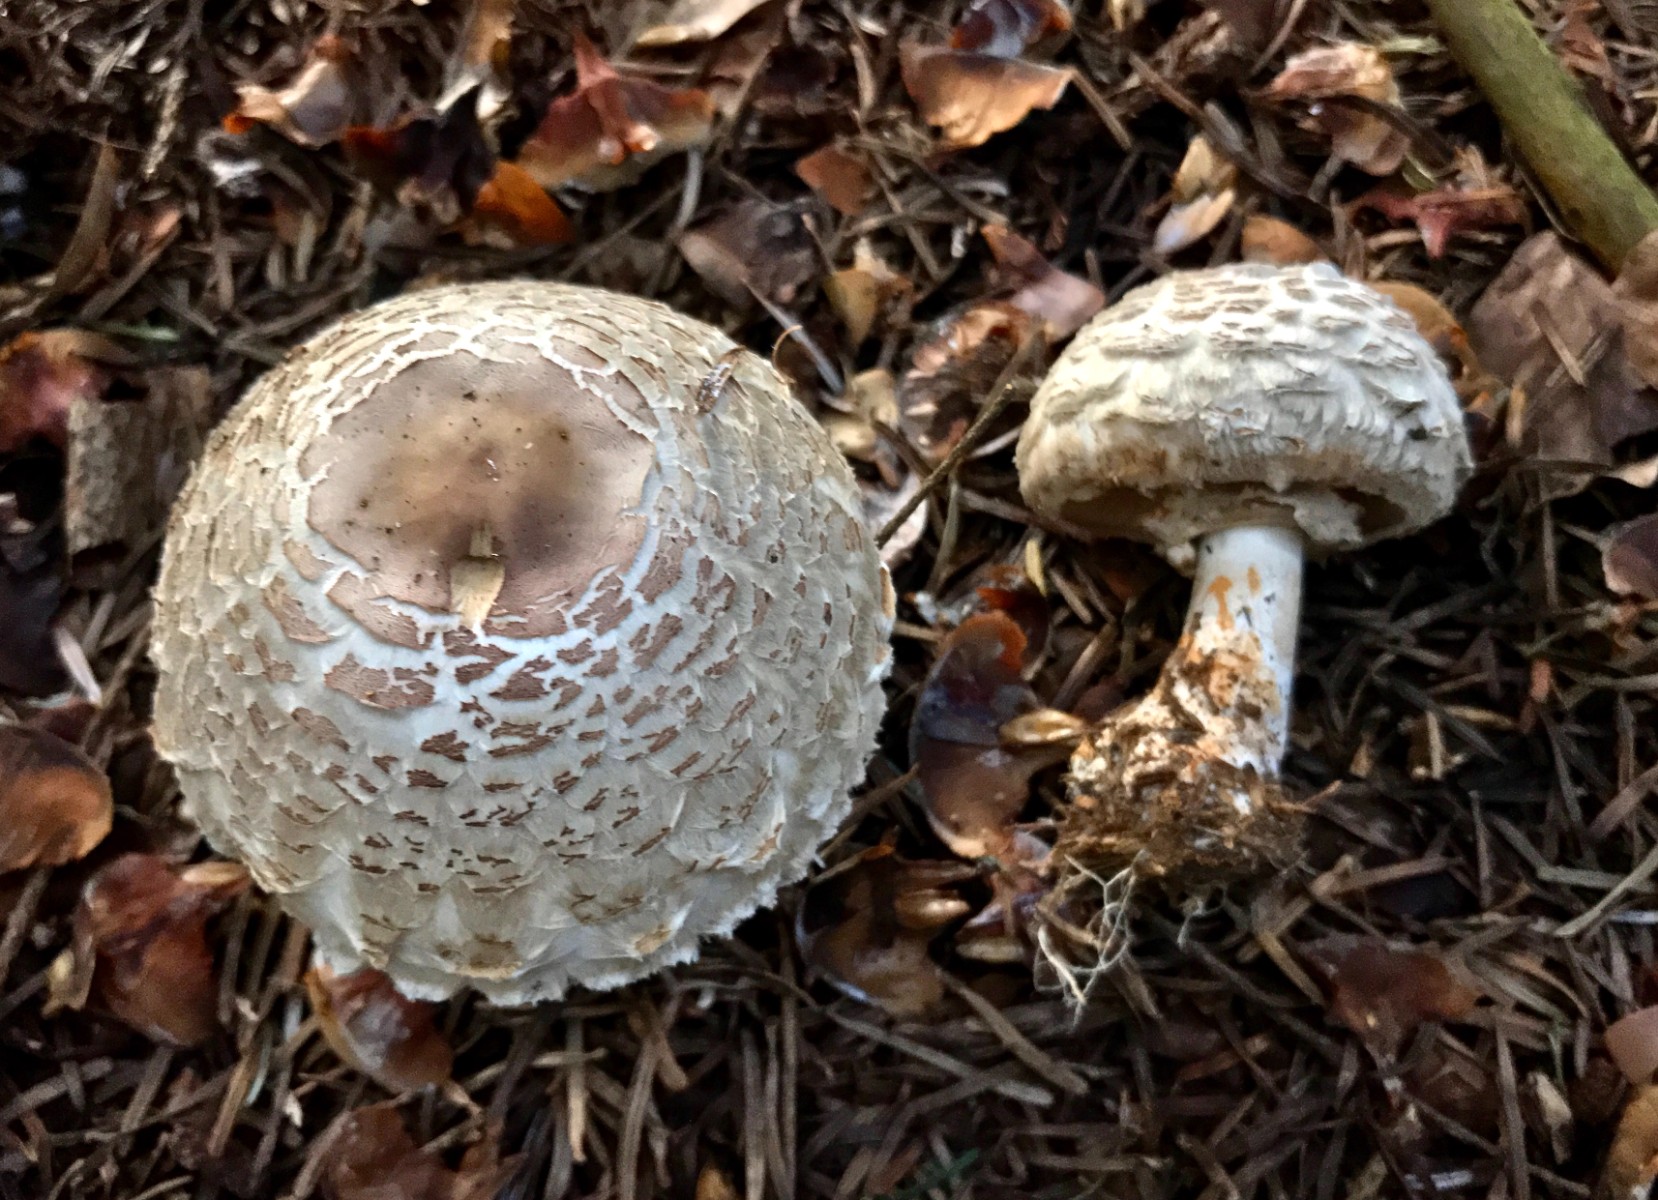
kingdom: Fungi
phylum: Basidiomycota
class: Agaricomycetes
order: Agaricales
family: Agaricaceae
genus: Chlorophyllum
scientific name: Chlorophyllum olivieri
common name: almindelig rabarberhat
